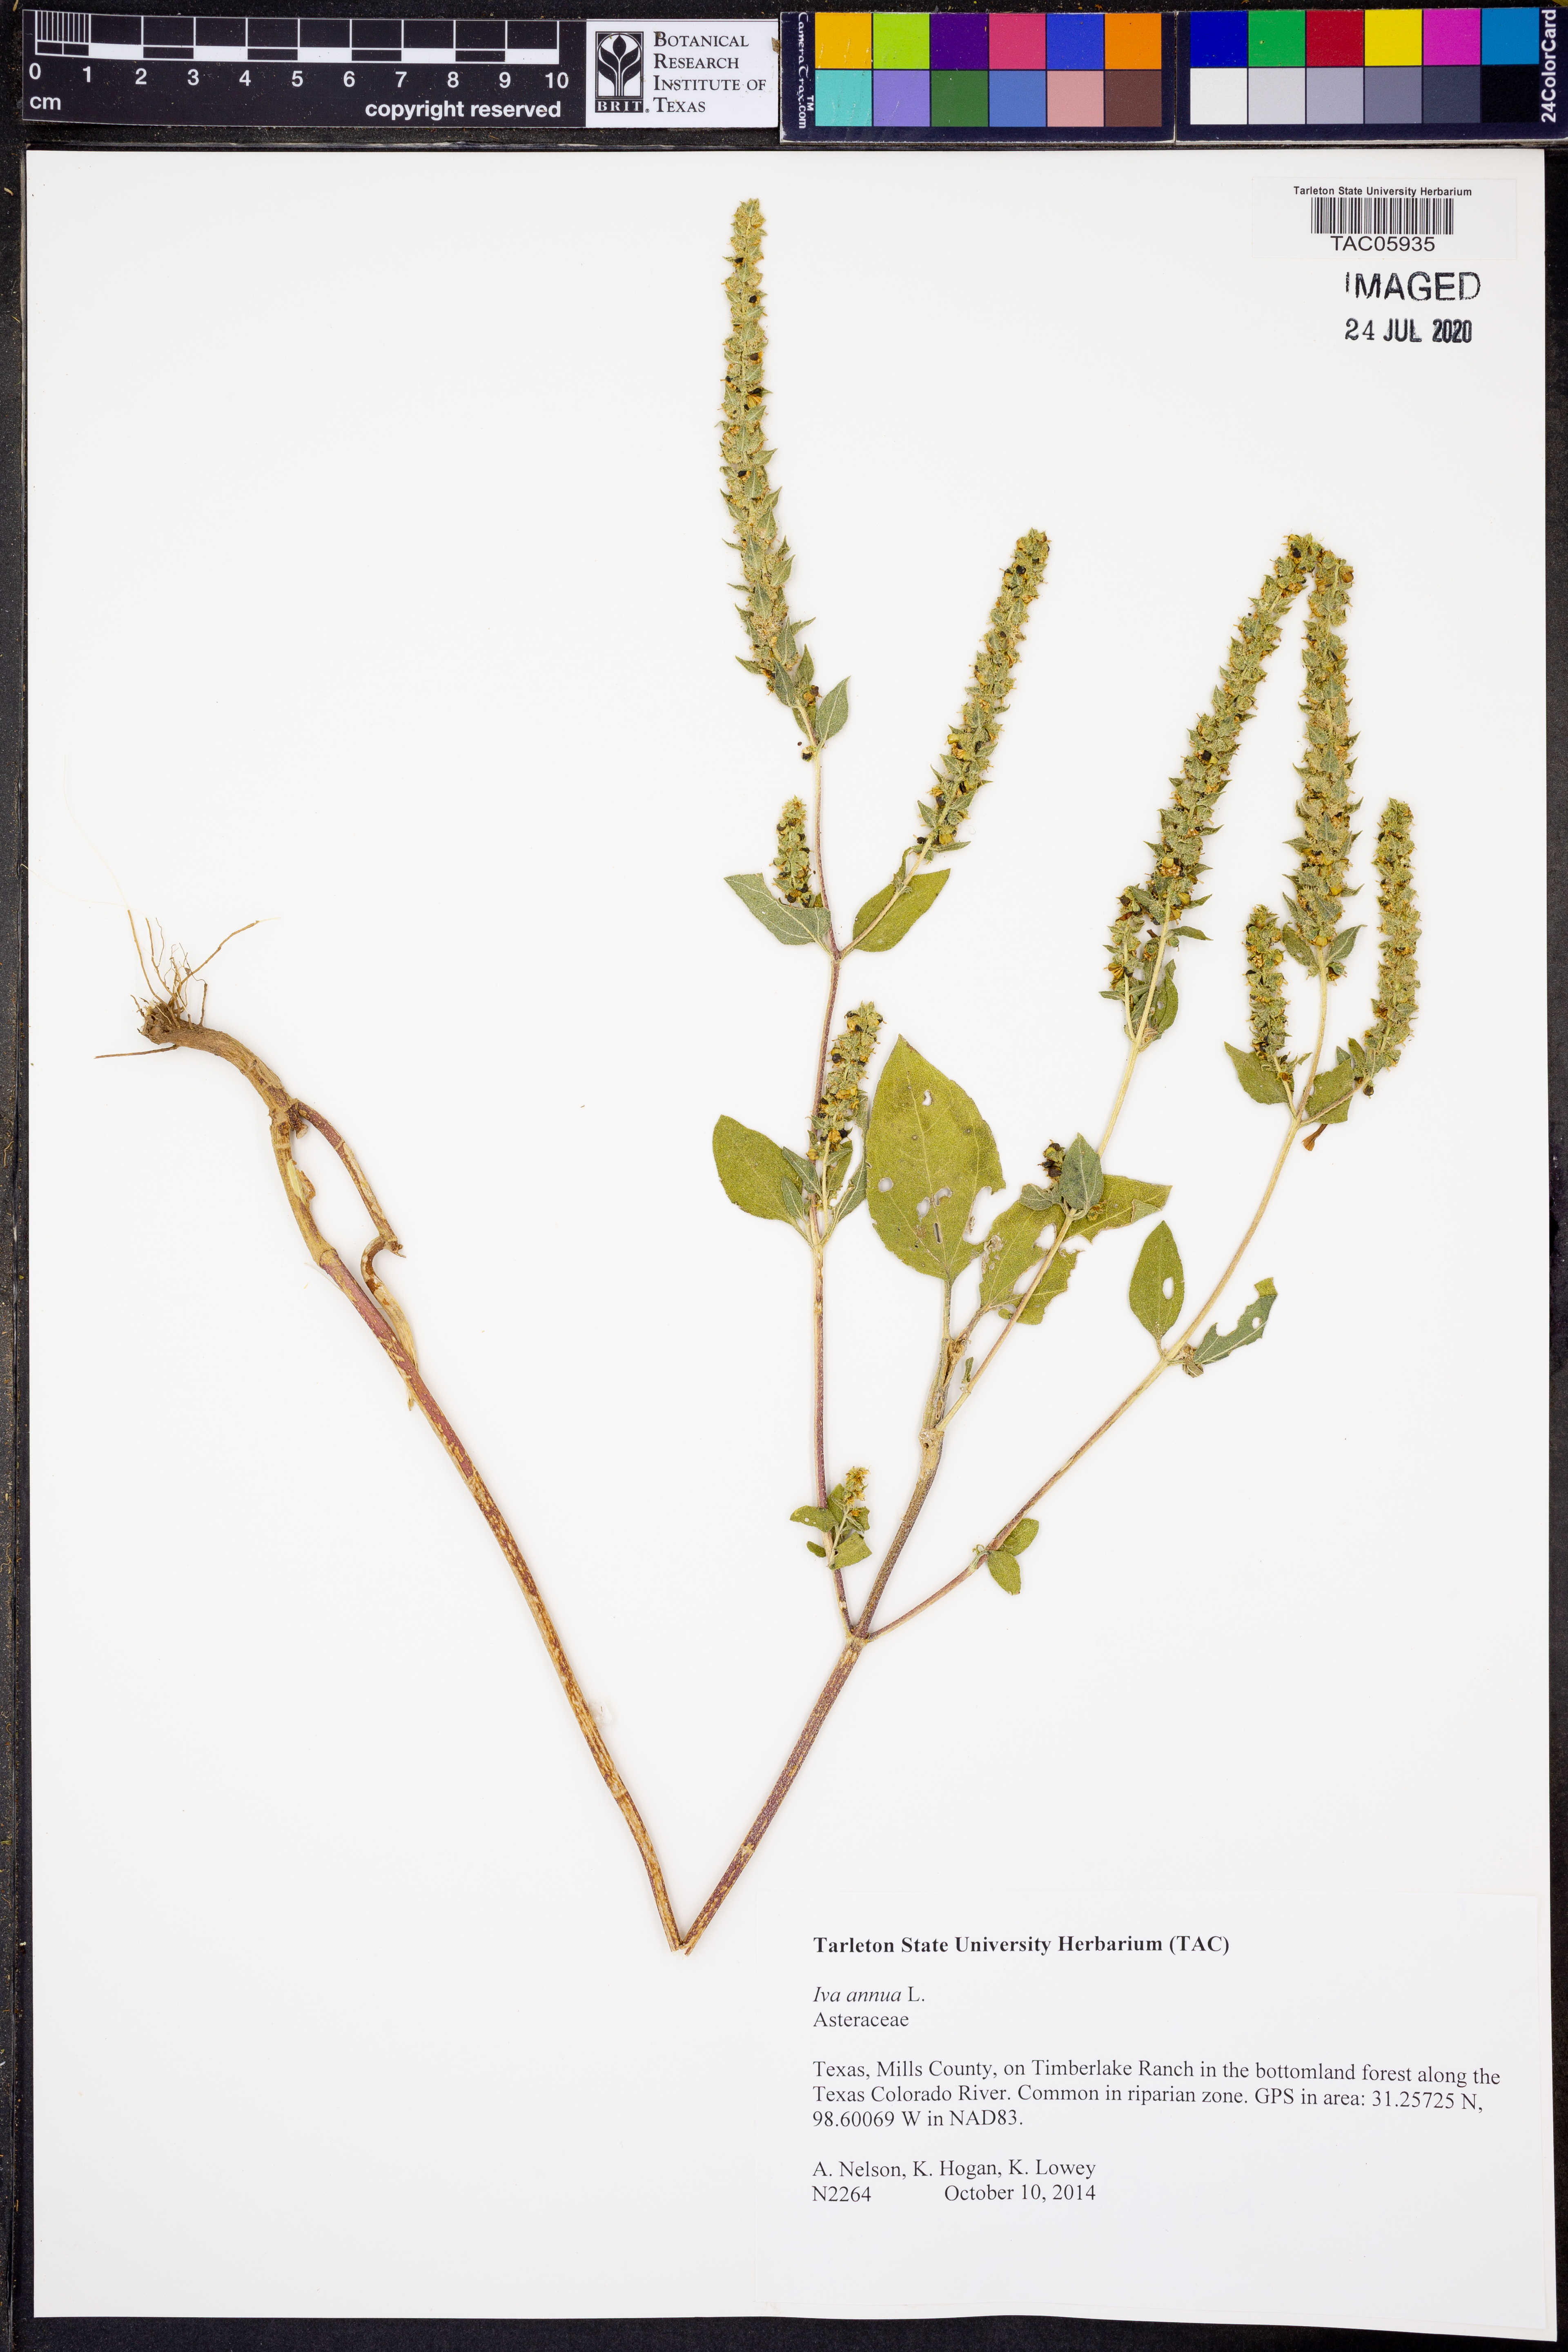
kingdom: Plantae
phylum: Tracheophyta
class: Magnoliopsida
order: Asterales
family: Asteraceae
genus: Iva
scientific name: Iva annua
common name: Marsh-elder
